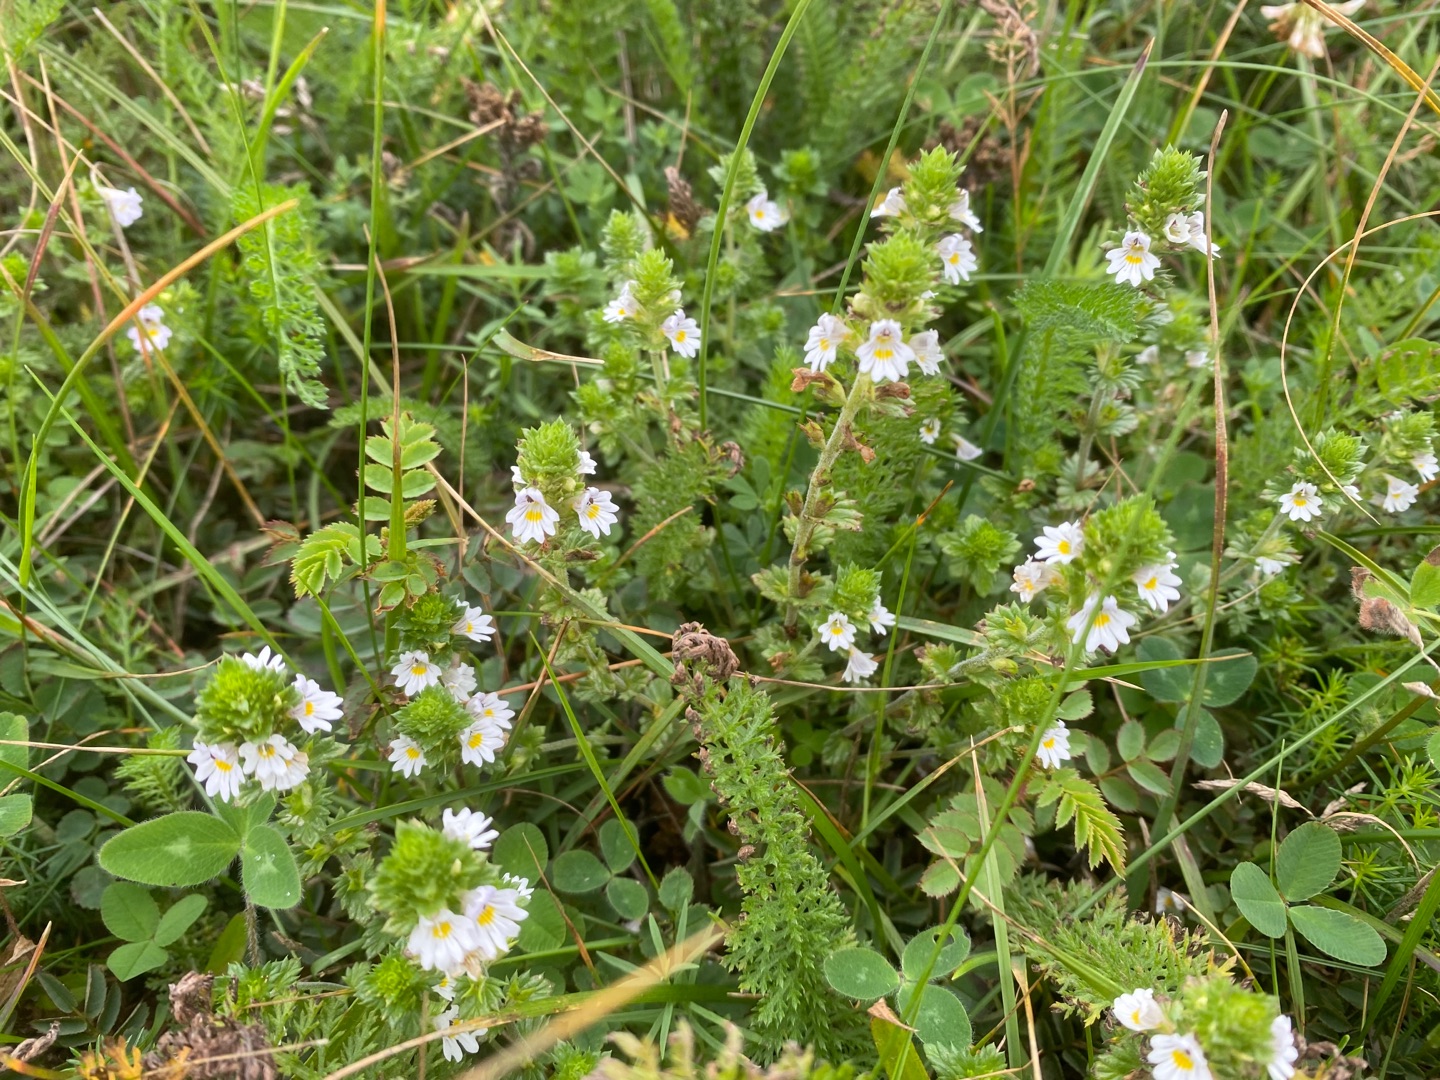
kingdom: Plantae
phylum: Tracheophyta
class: Magnoliopsida
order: Lamiales
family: Orobanchaceae
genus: Euphrasia
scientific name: Euphrasia nemorosa
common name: Kort øjentrøst
